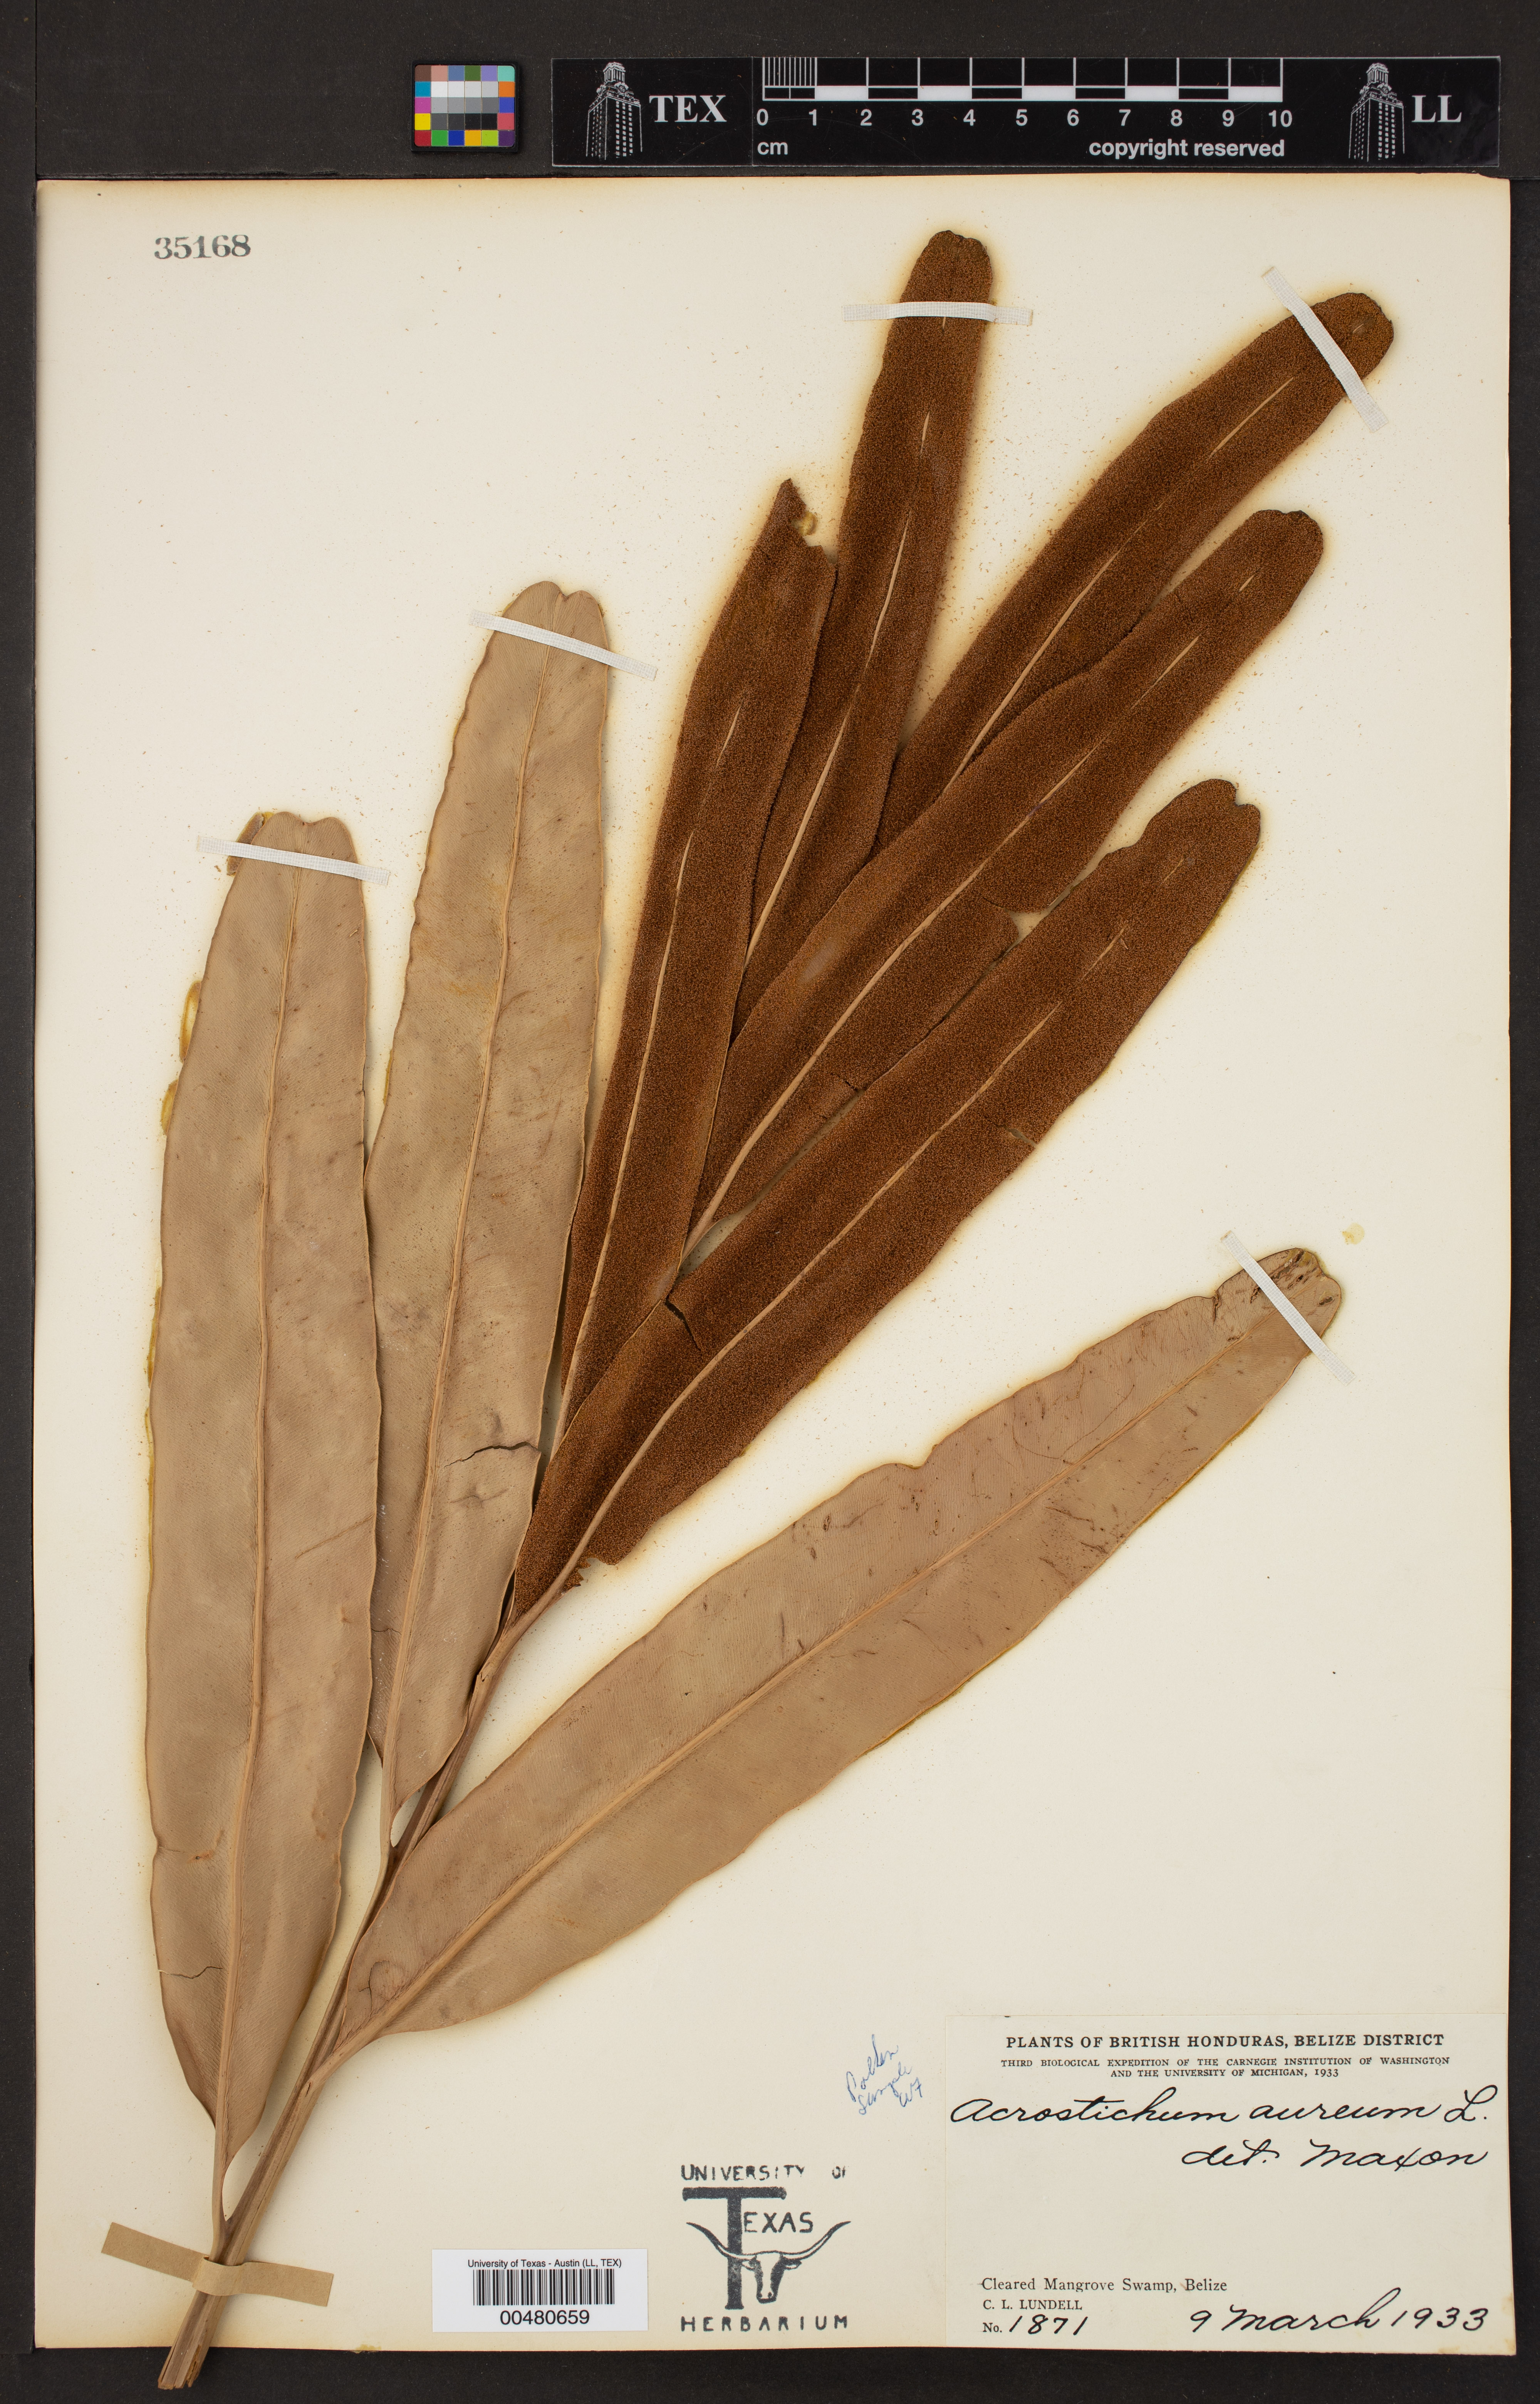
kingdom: Plantae
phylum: Tracheophyta
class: Polypodiopsida
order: Polypodiales
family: Pteridaceae
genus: Acrostichum
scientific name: Acrostichum aureum
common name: Leather fern
